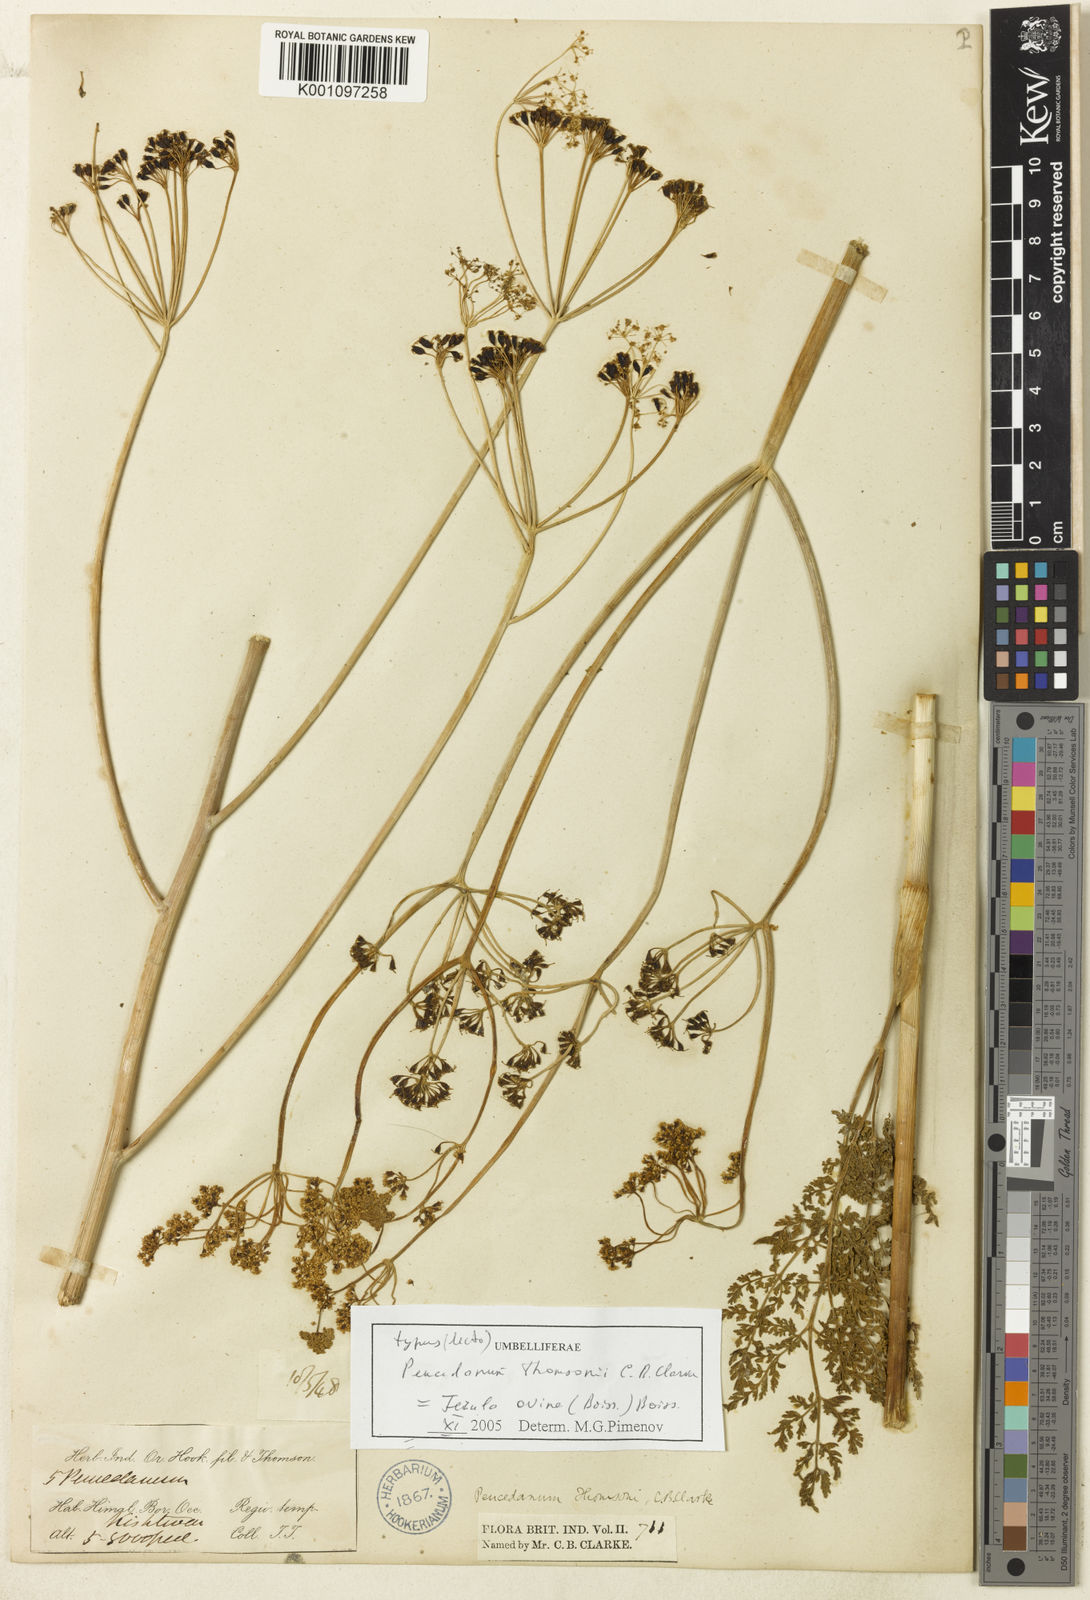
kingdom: Plantae
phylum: Tracheophyta
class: Magnoliopsida
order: Apiales
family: Apiaceae
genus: Ferula
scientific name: Ferula
